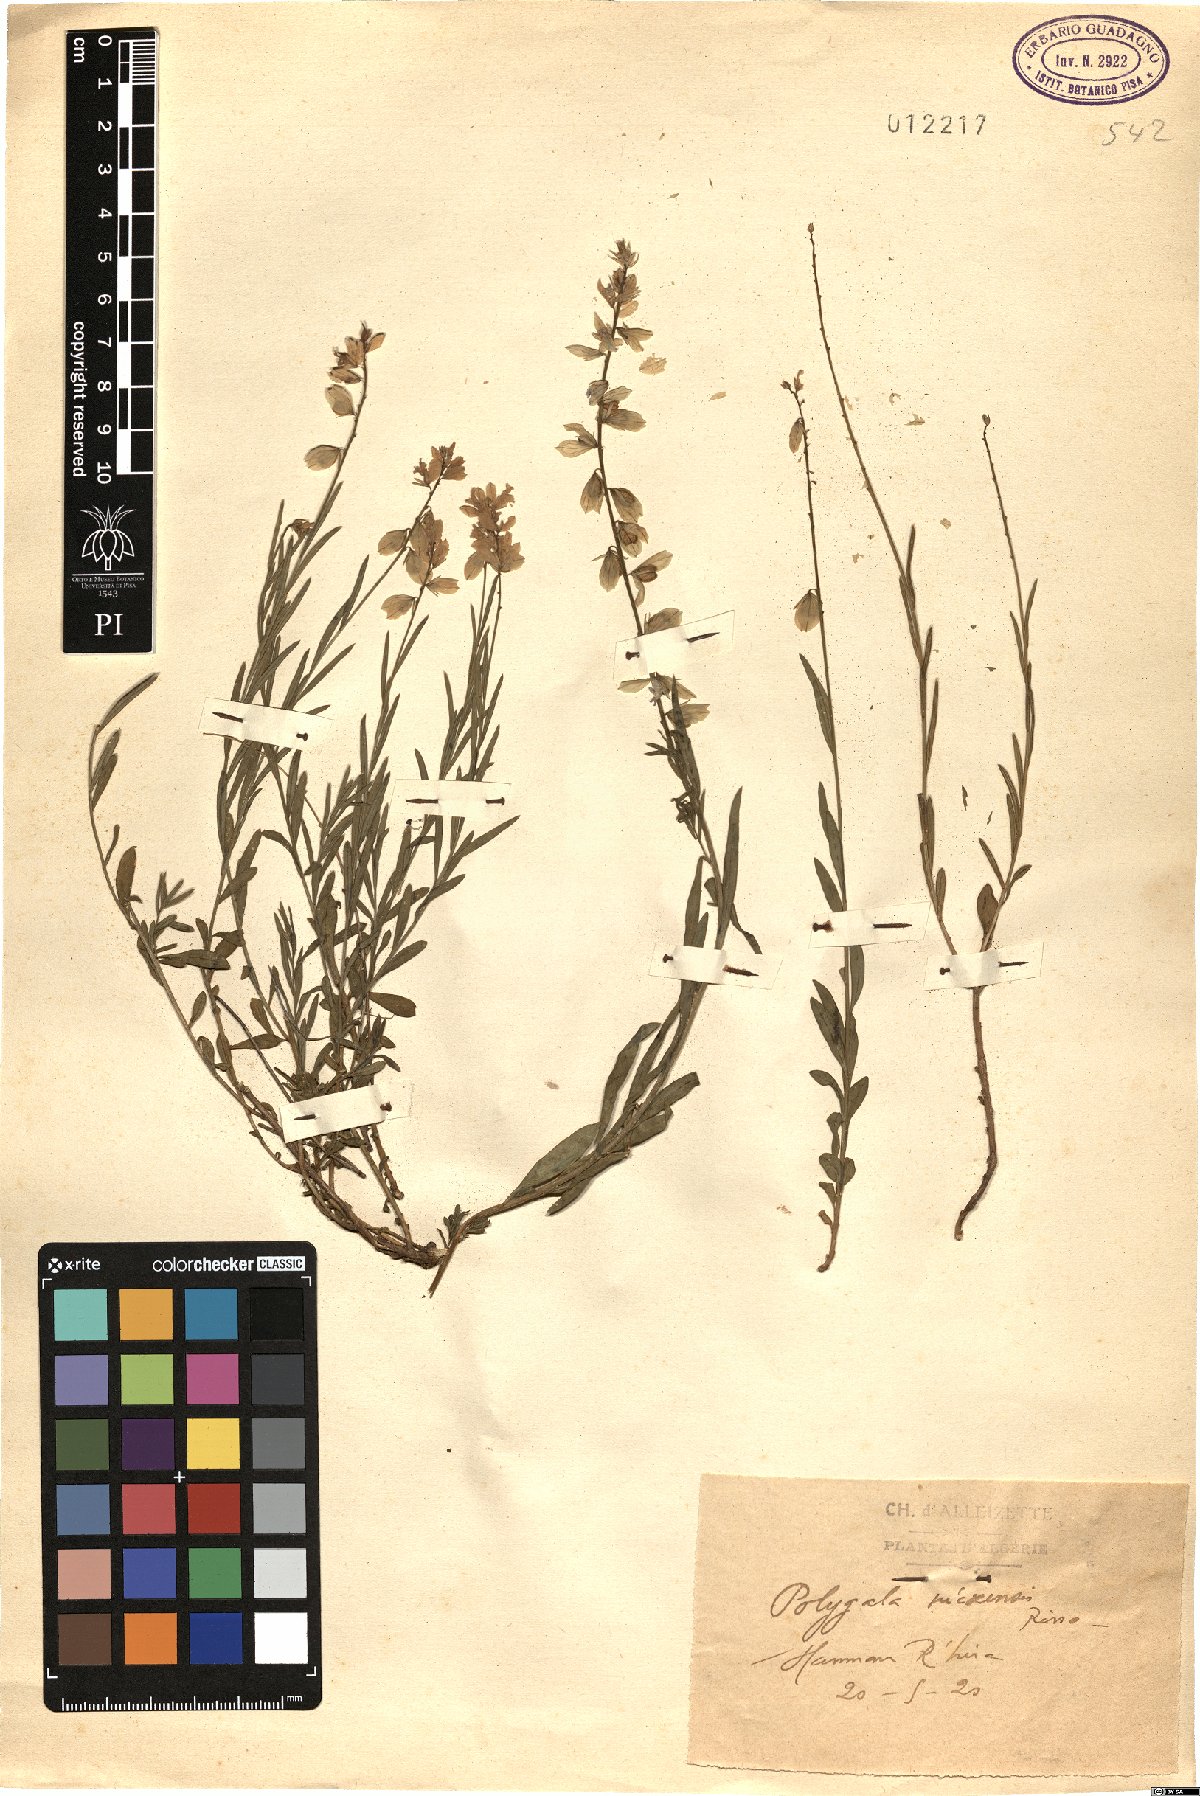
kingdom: Plantae
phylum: Tracheophyta
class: Magnoliopsida
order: Fabales
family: Polygalaceae
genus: Polygala
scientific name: Polygala nicaeensis
